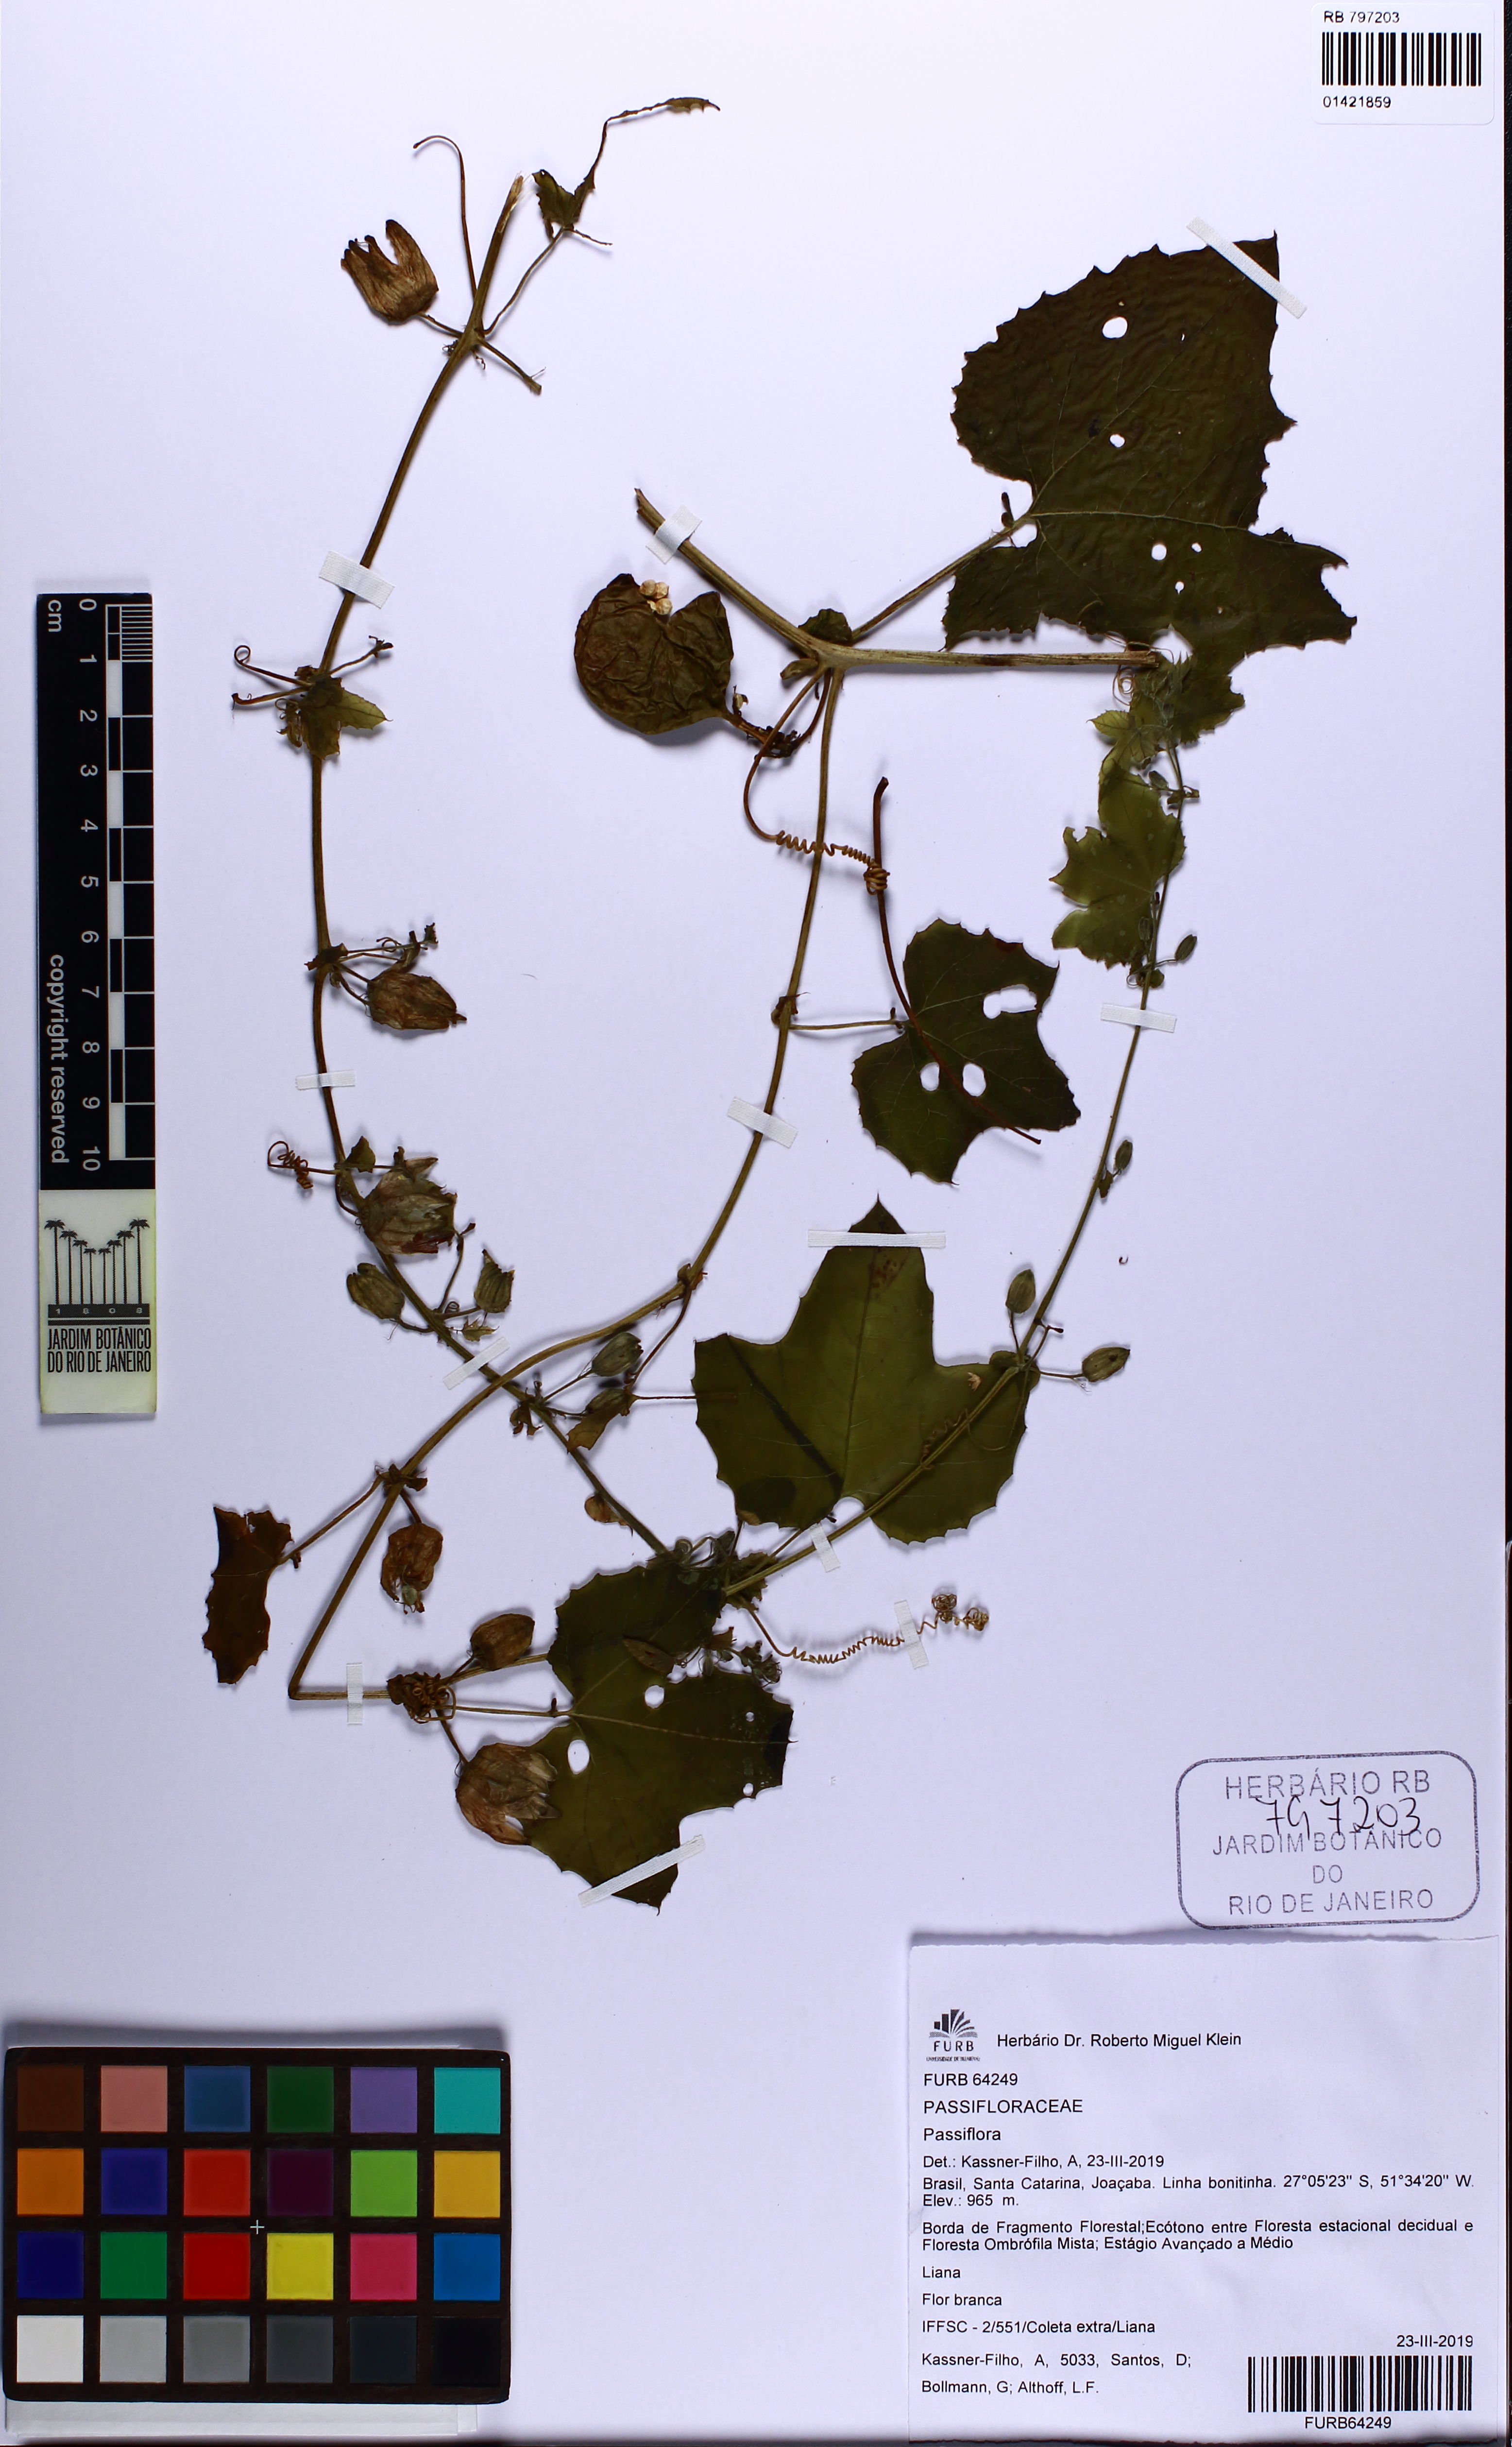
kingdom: Plantae
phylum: Tracheophyta
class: Magnoliopsida
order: Malpighiales
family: Passifloraceae
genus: Passiflora
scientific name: Passiflora
